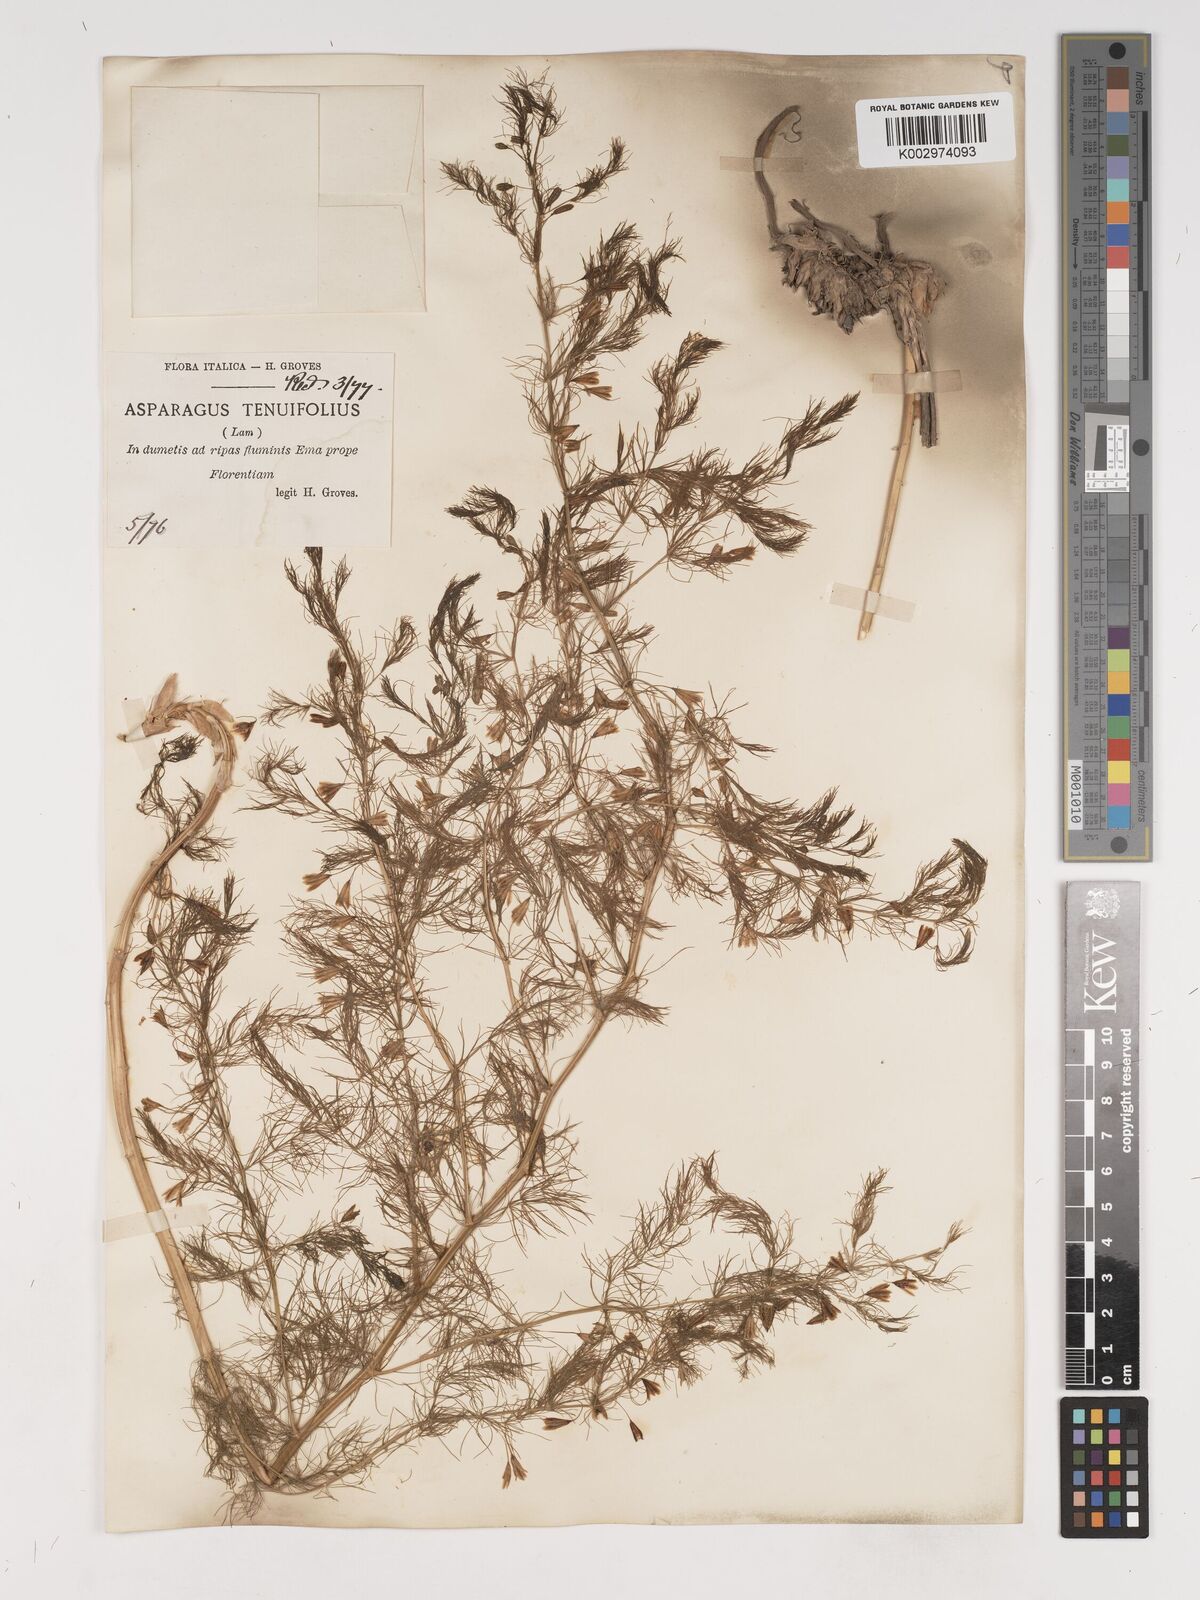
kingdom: Plantae
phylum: Tracheophyta
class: Liliopsida
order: Asparagales
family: Asparagaceae
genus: Asparagus
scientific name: Asparagus tenuifolius
